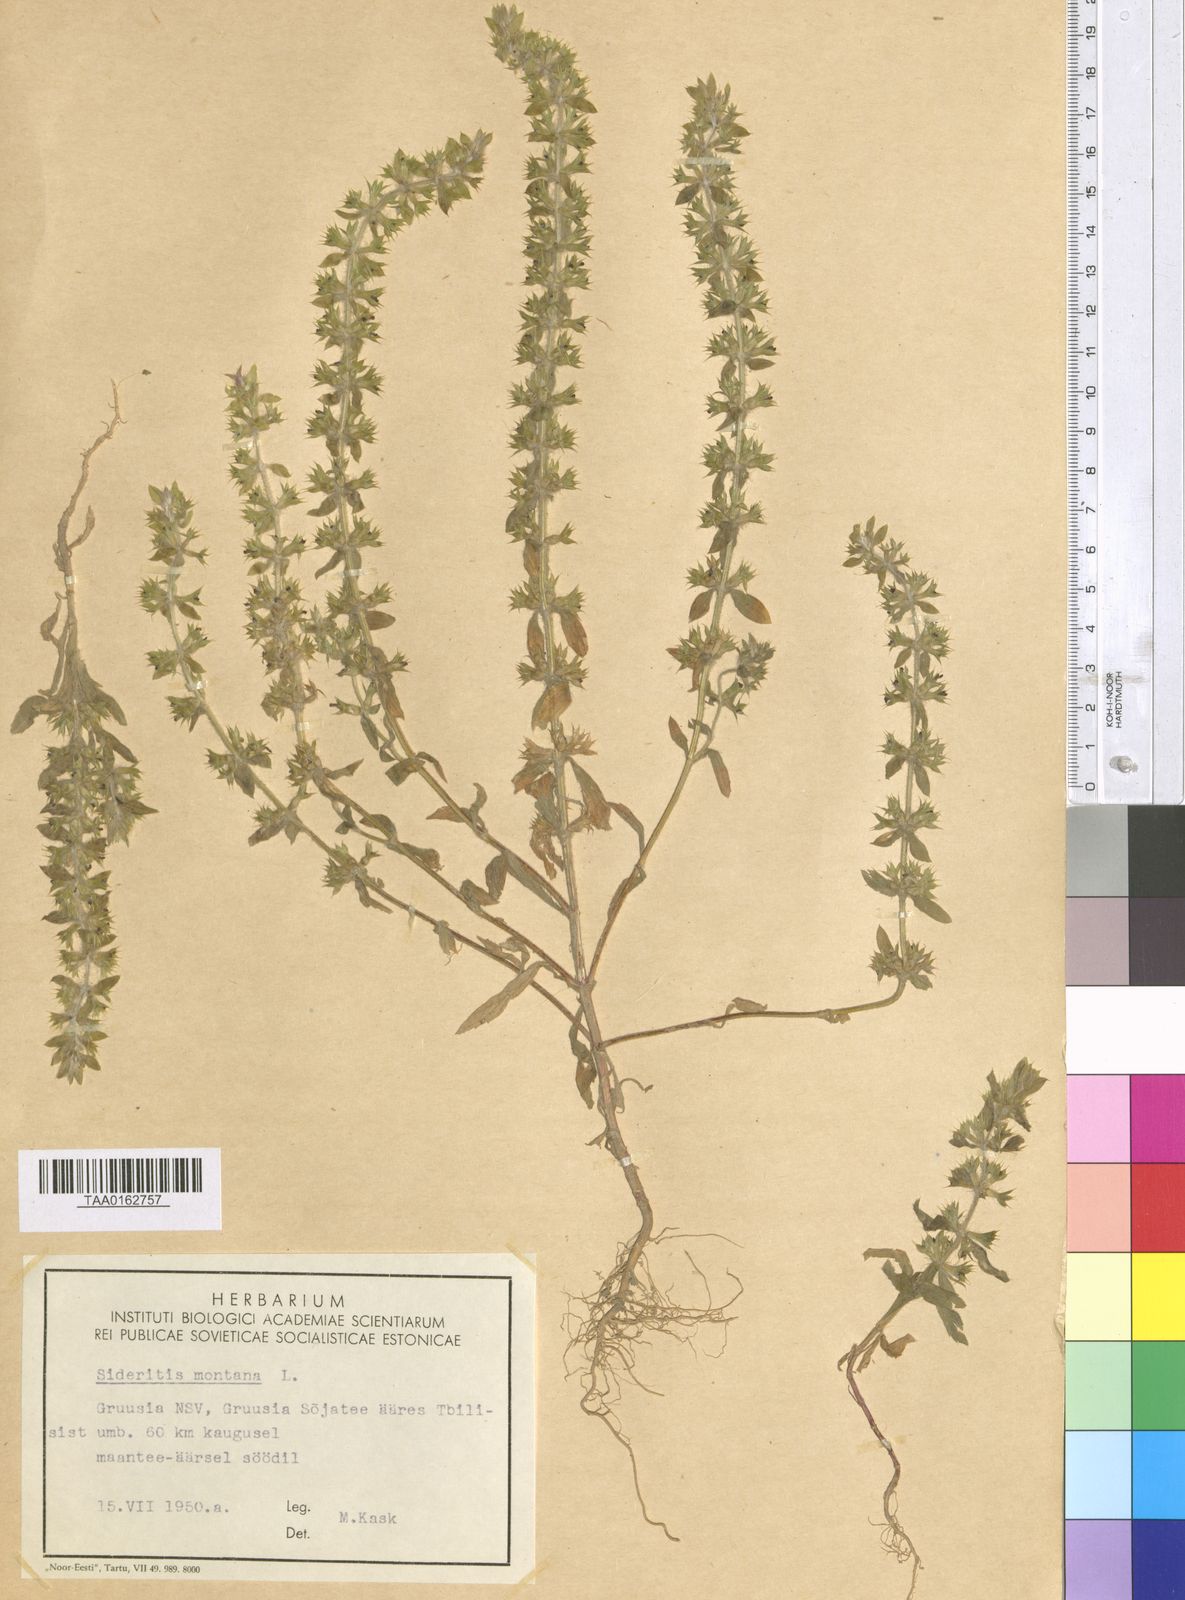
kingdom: Plantae
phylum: Tracheophyta
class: Magnoliopsida
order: Lamiales
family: Lamiaceae
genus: Sideritis
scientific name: Sideritis montana
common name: Mountain ironwort
